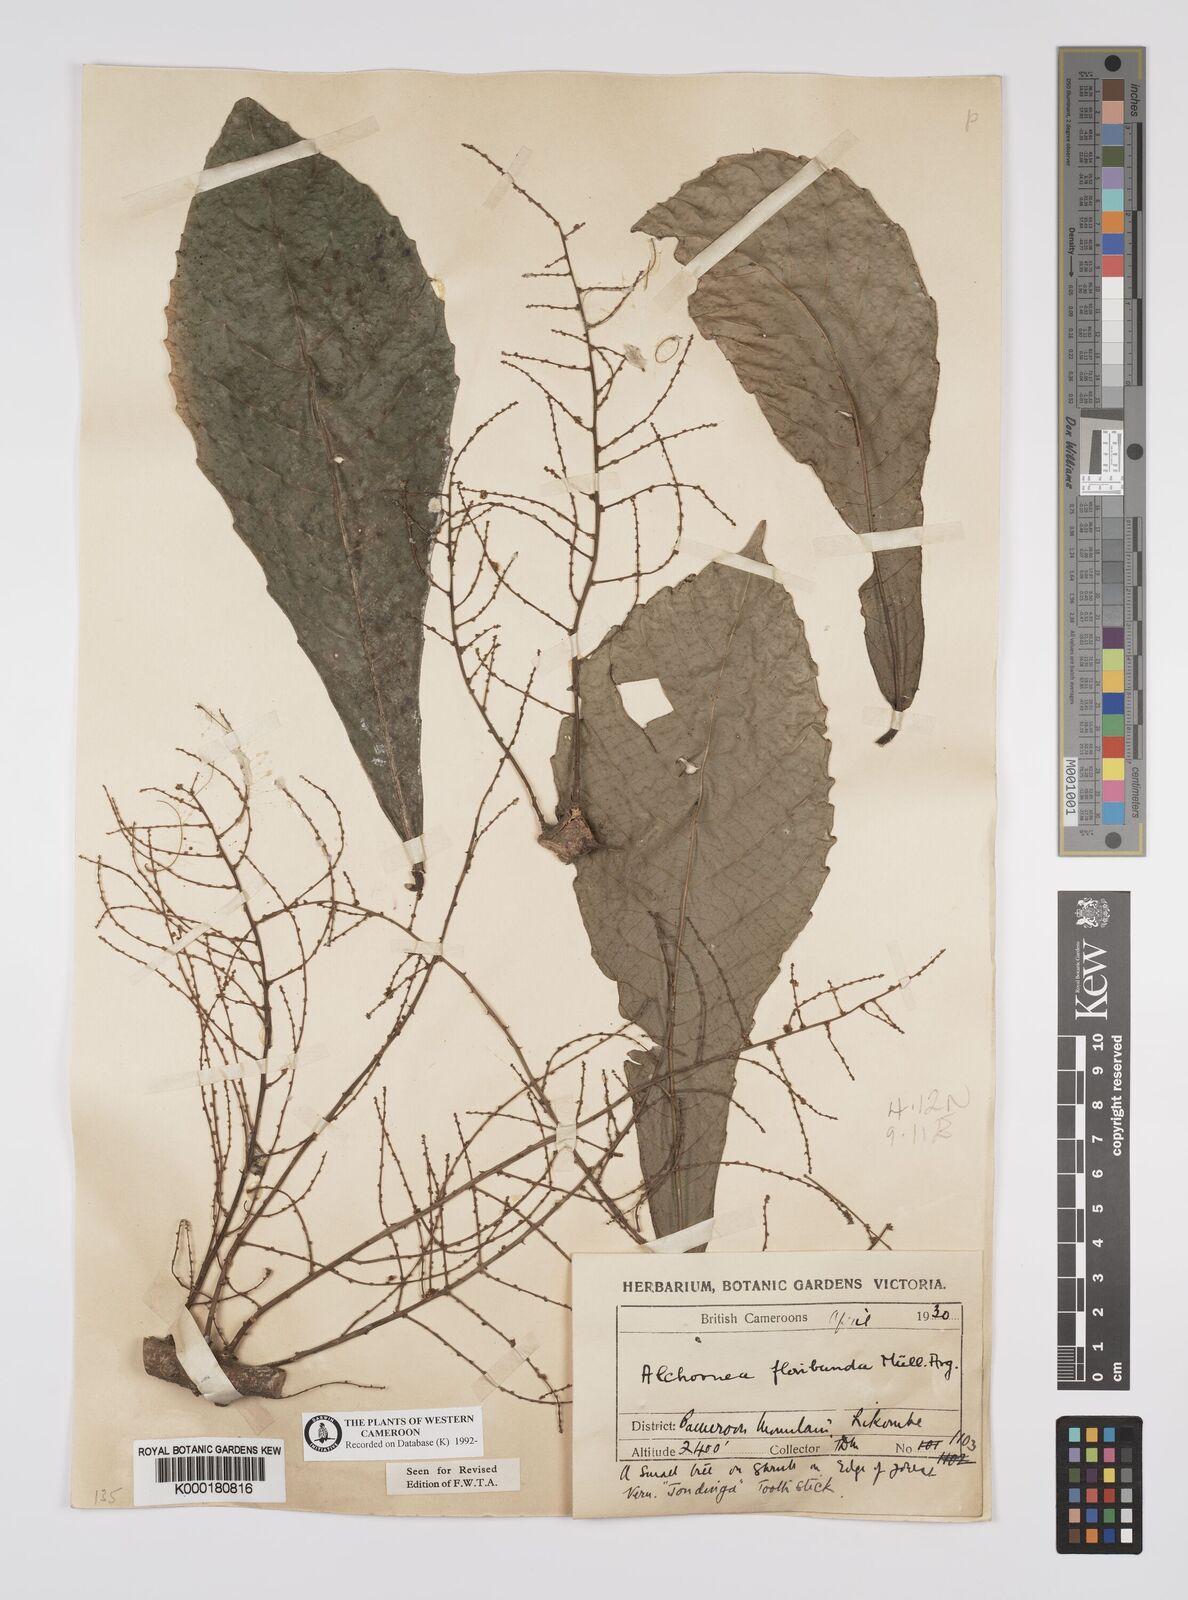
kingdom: Plantae
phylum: Tracheophyta
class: Magnoliopsida
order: Malpighiales
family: Euphorbiaceae
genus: Alchornea
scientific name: Alchornea
